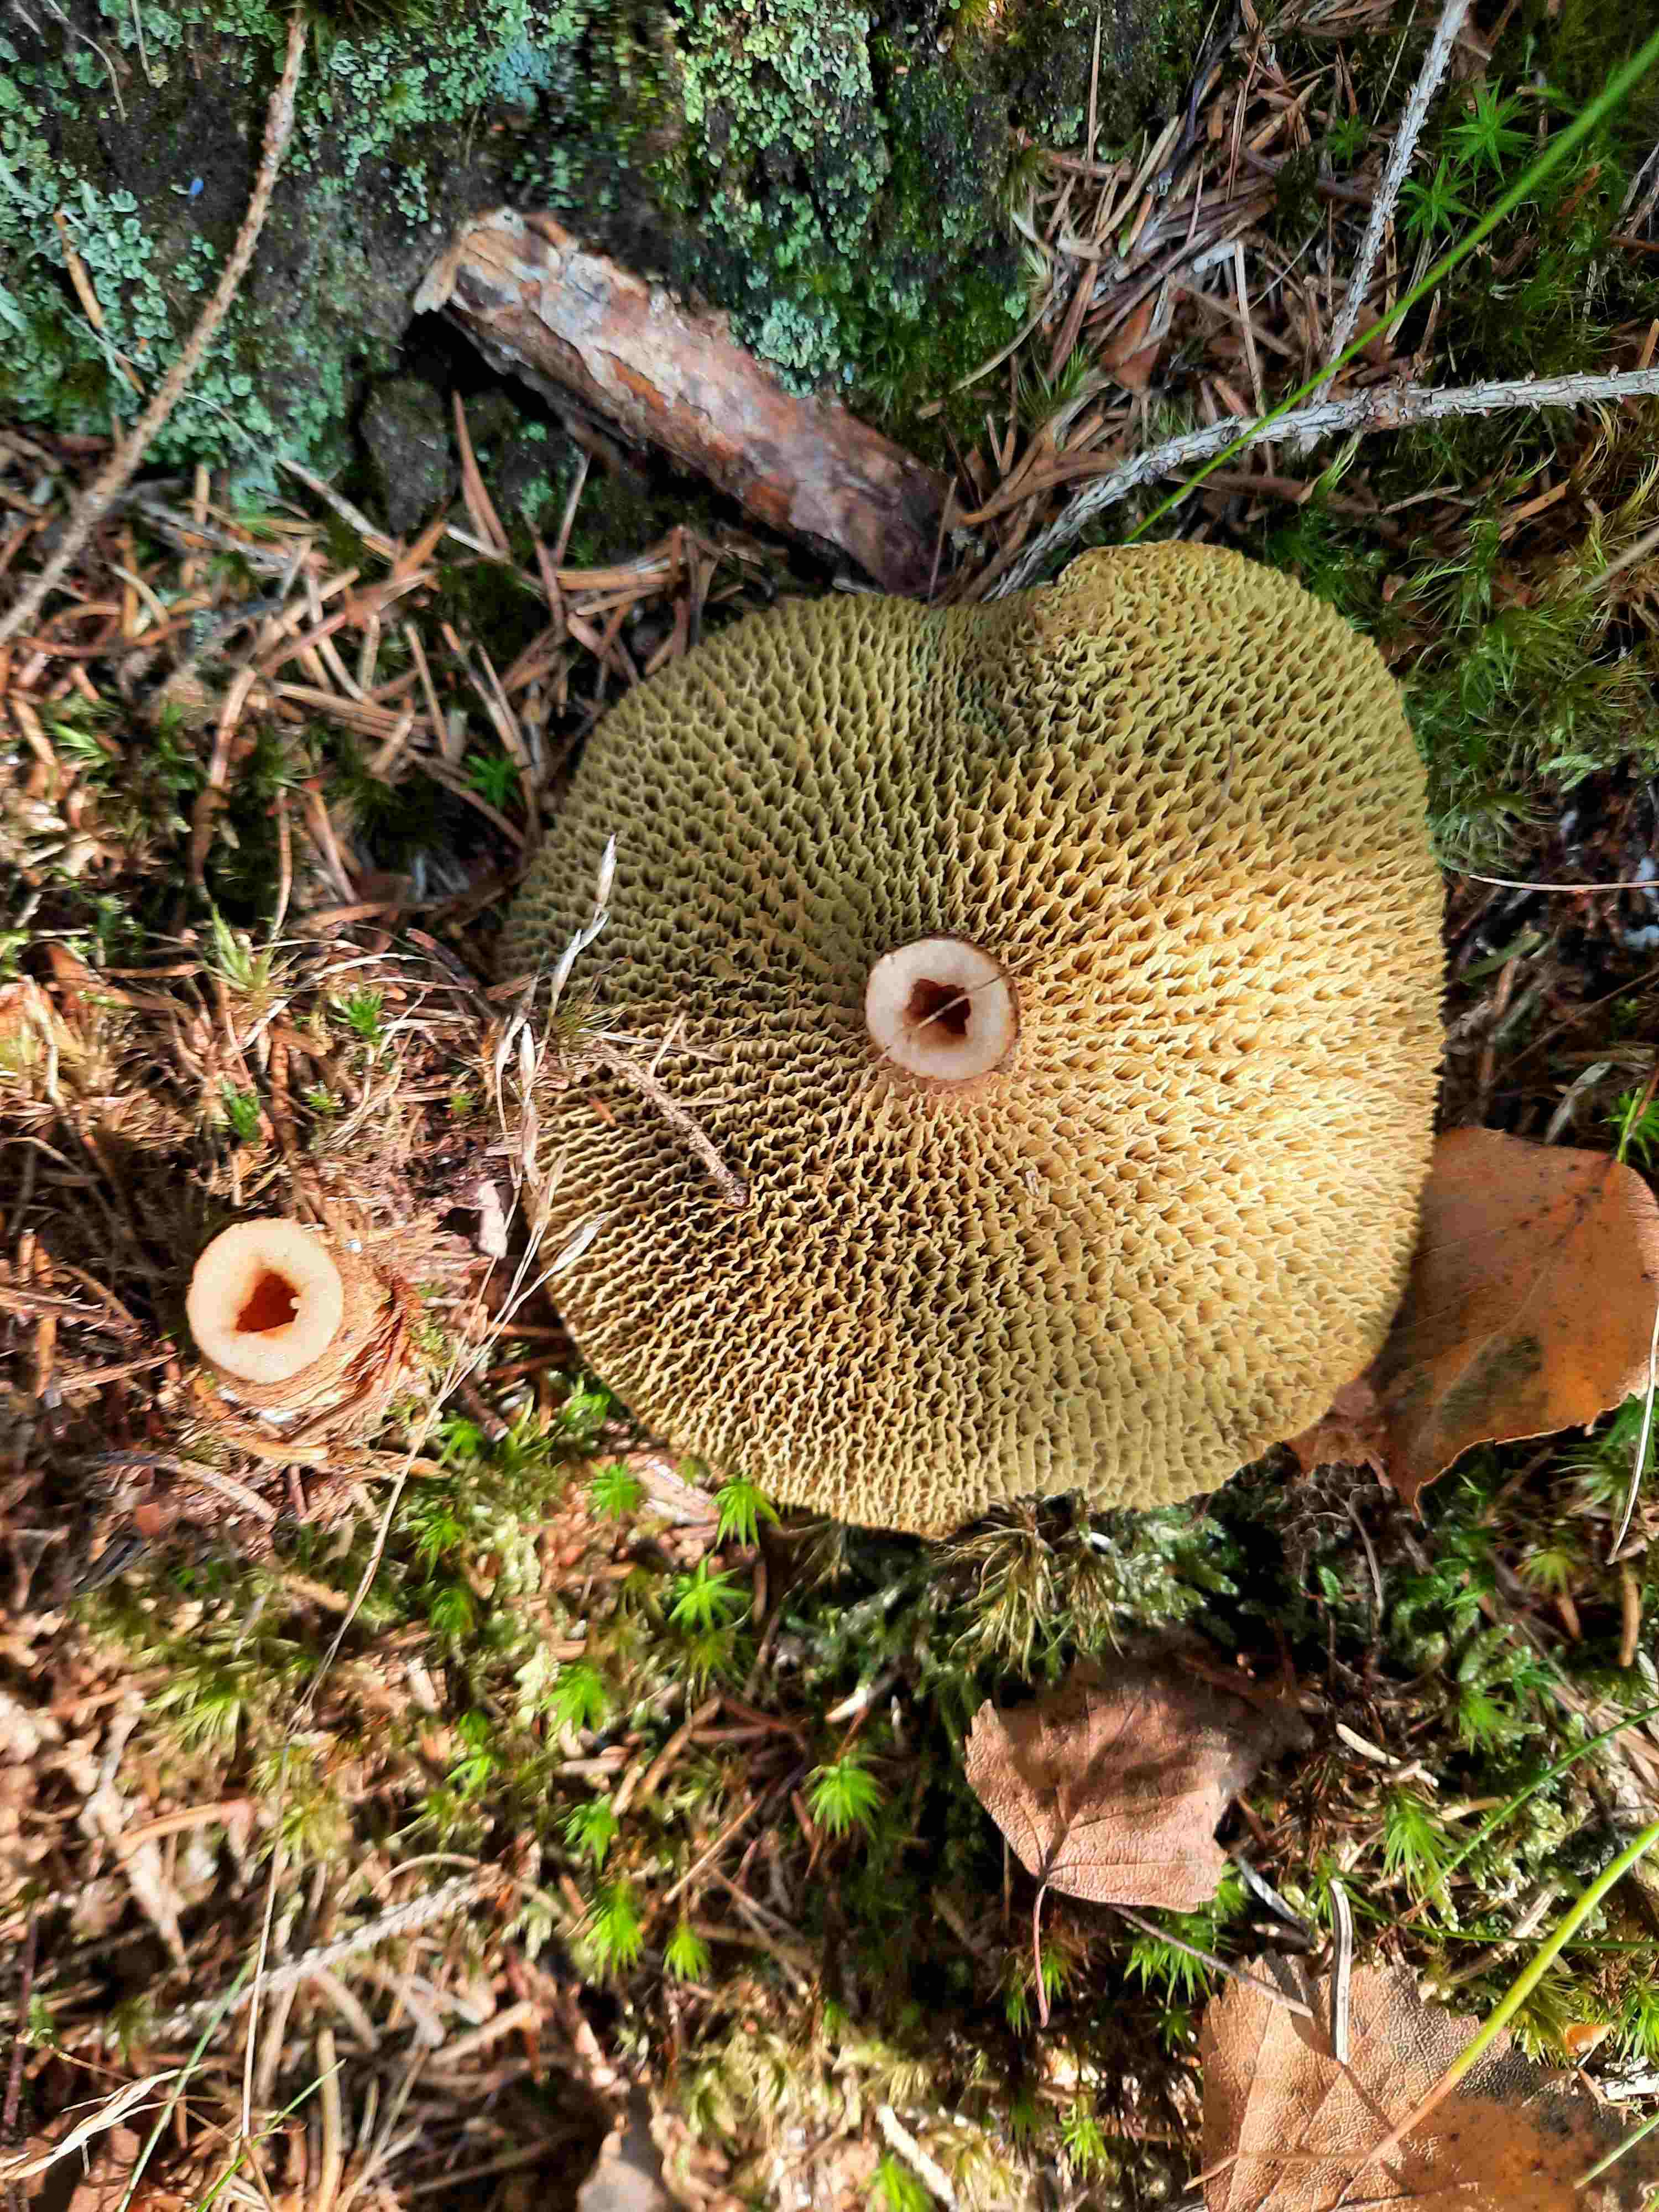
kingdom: Fungi
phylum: Basidiomycota
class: Agaricomycetes
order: Boletales
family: Suillaceae
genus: Suillus
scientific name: Suillus cavipes
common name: hulstokket slimrørhat
